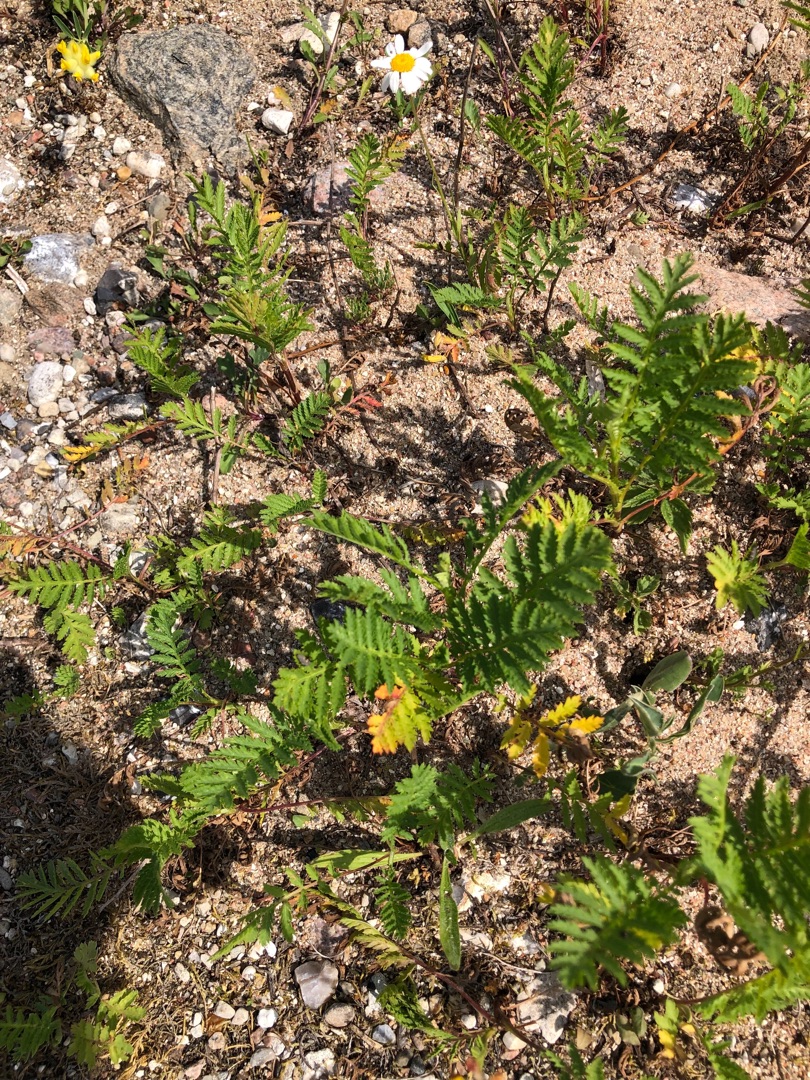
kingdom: Plantae
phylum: Tracheophyta
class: Magnoliopsida
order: Asterales
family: Asteraceae
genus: Tanacetum
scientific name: Tanacetum vulgare
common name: Rejnfan
